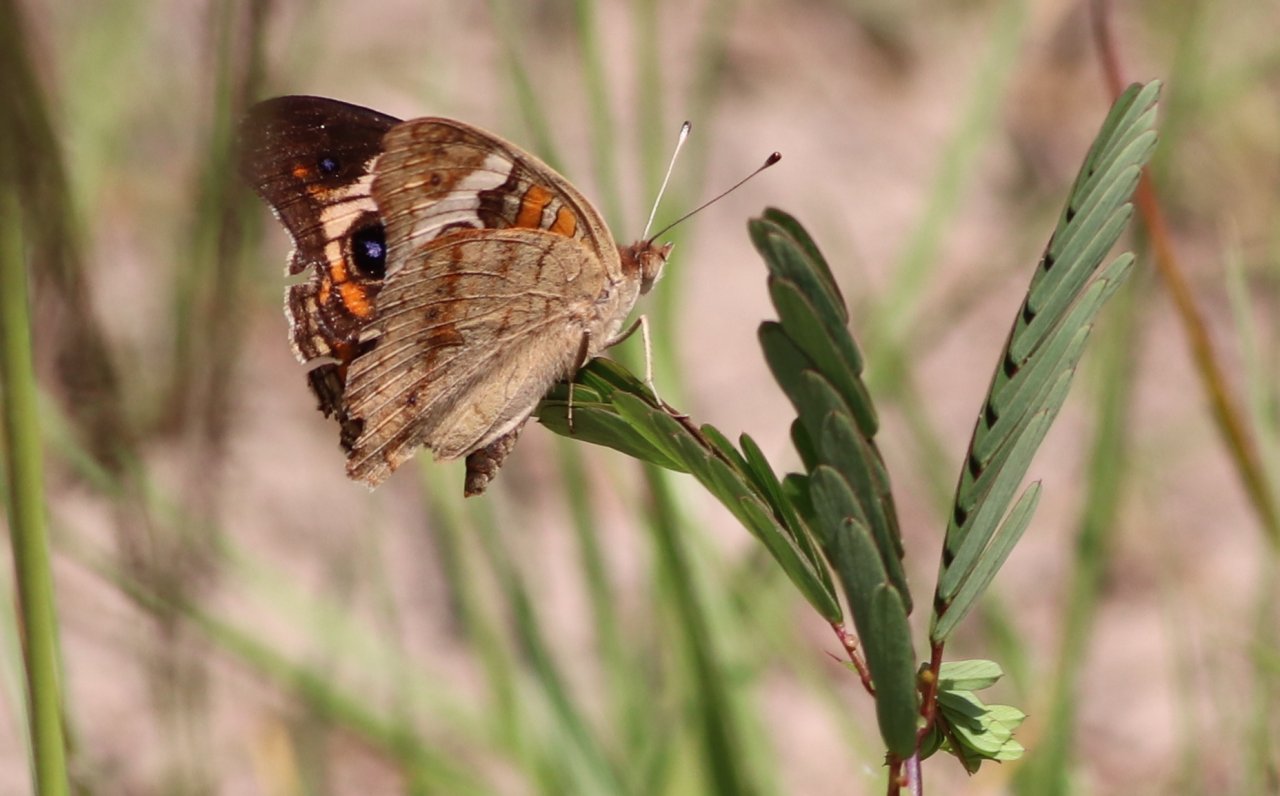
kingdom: Animalia
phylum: Arthropoda
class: Insecta
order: Lepidoptera
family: Nymphalidae
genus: Junonia
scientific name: Junonia coenia
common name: Common Buckeye
